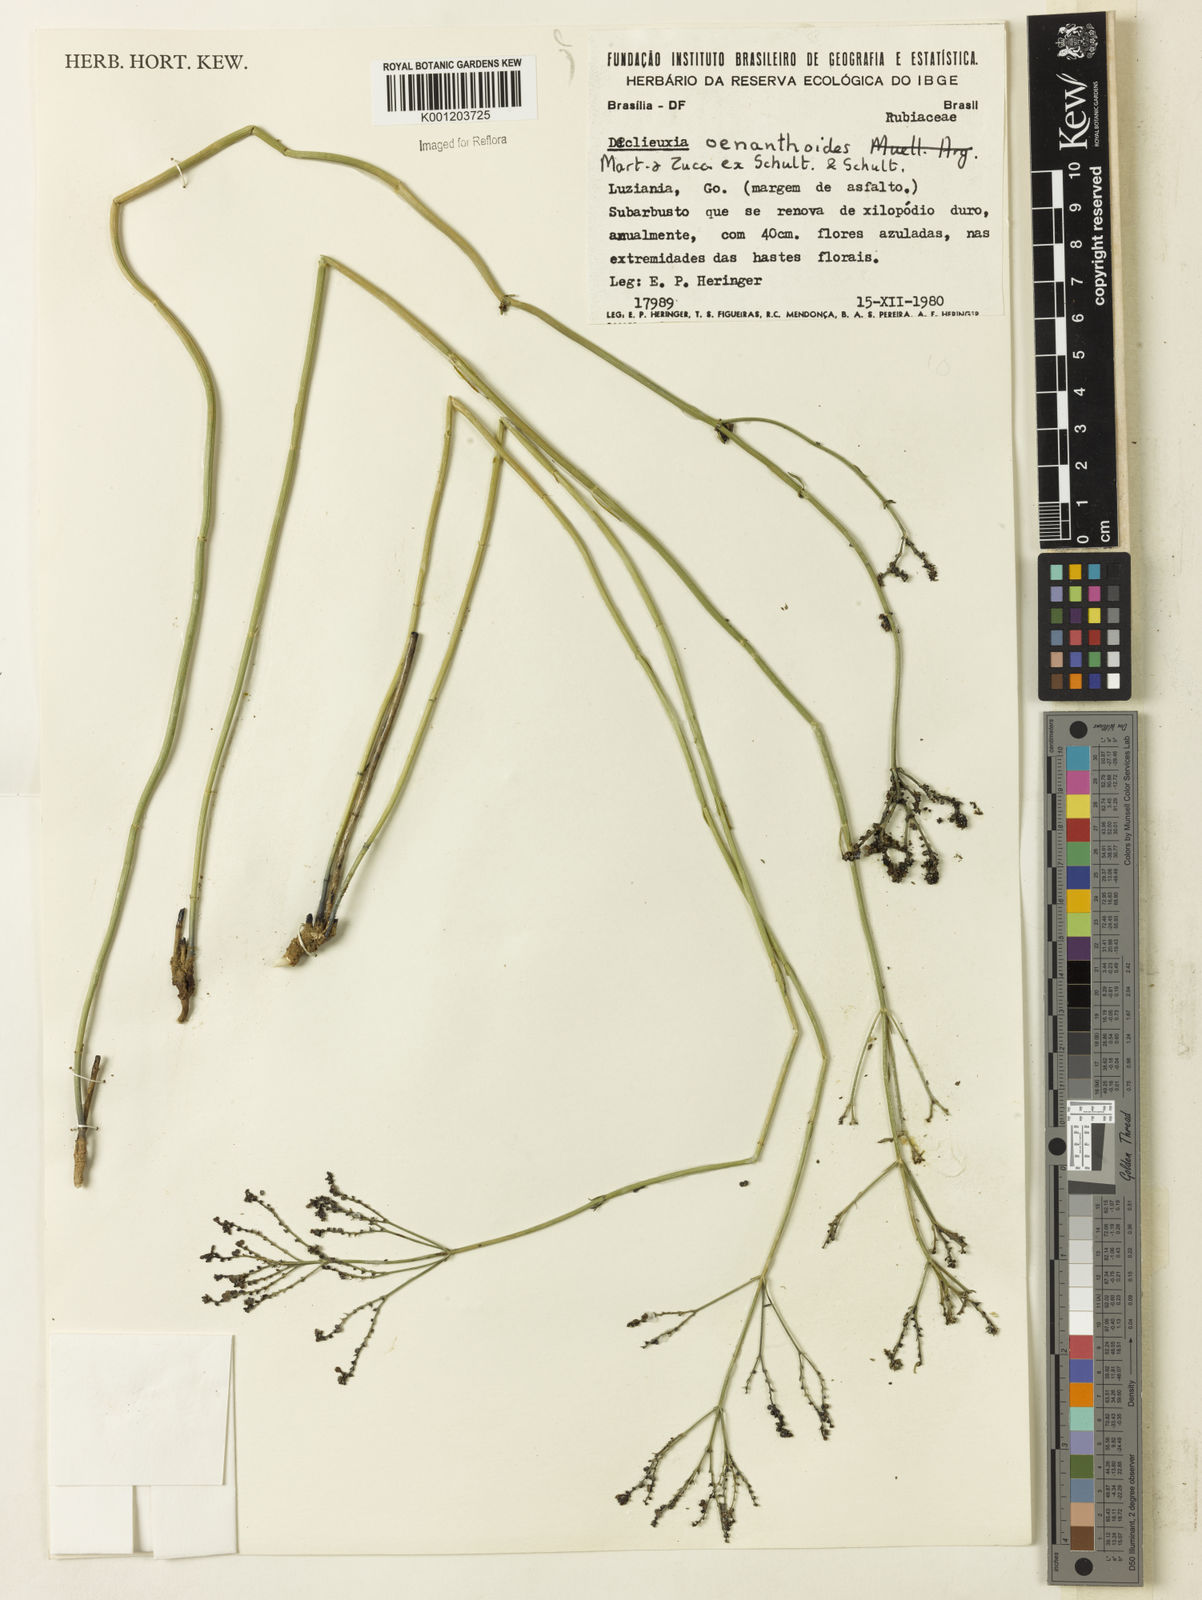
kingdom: Plantae
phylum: Tracheophyta
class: Magnoliopsida
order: Gentianales
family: Rubiaceae
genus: Declieuxia
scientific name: Declieuxia
